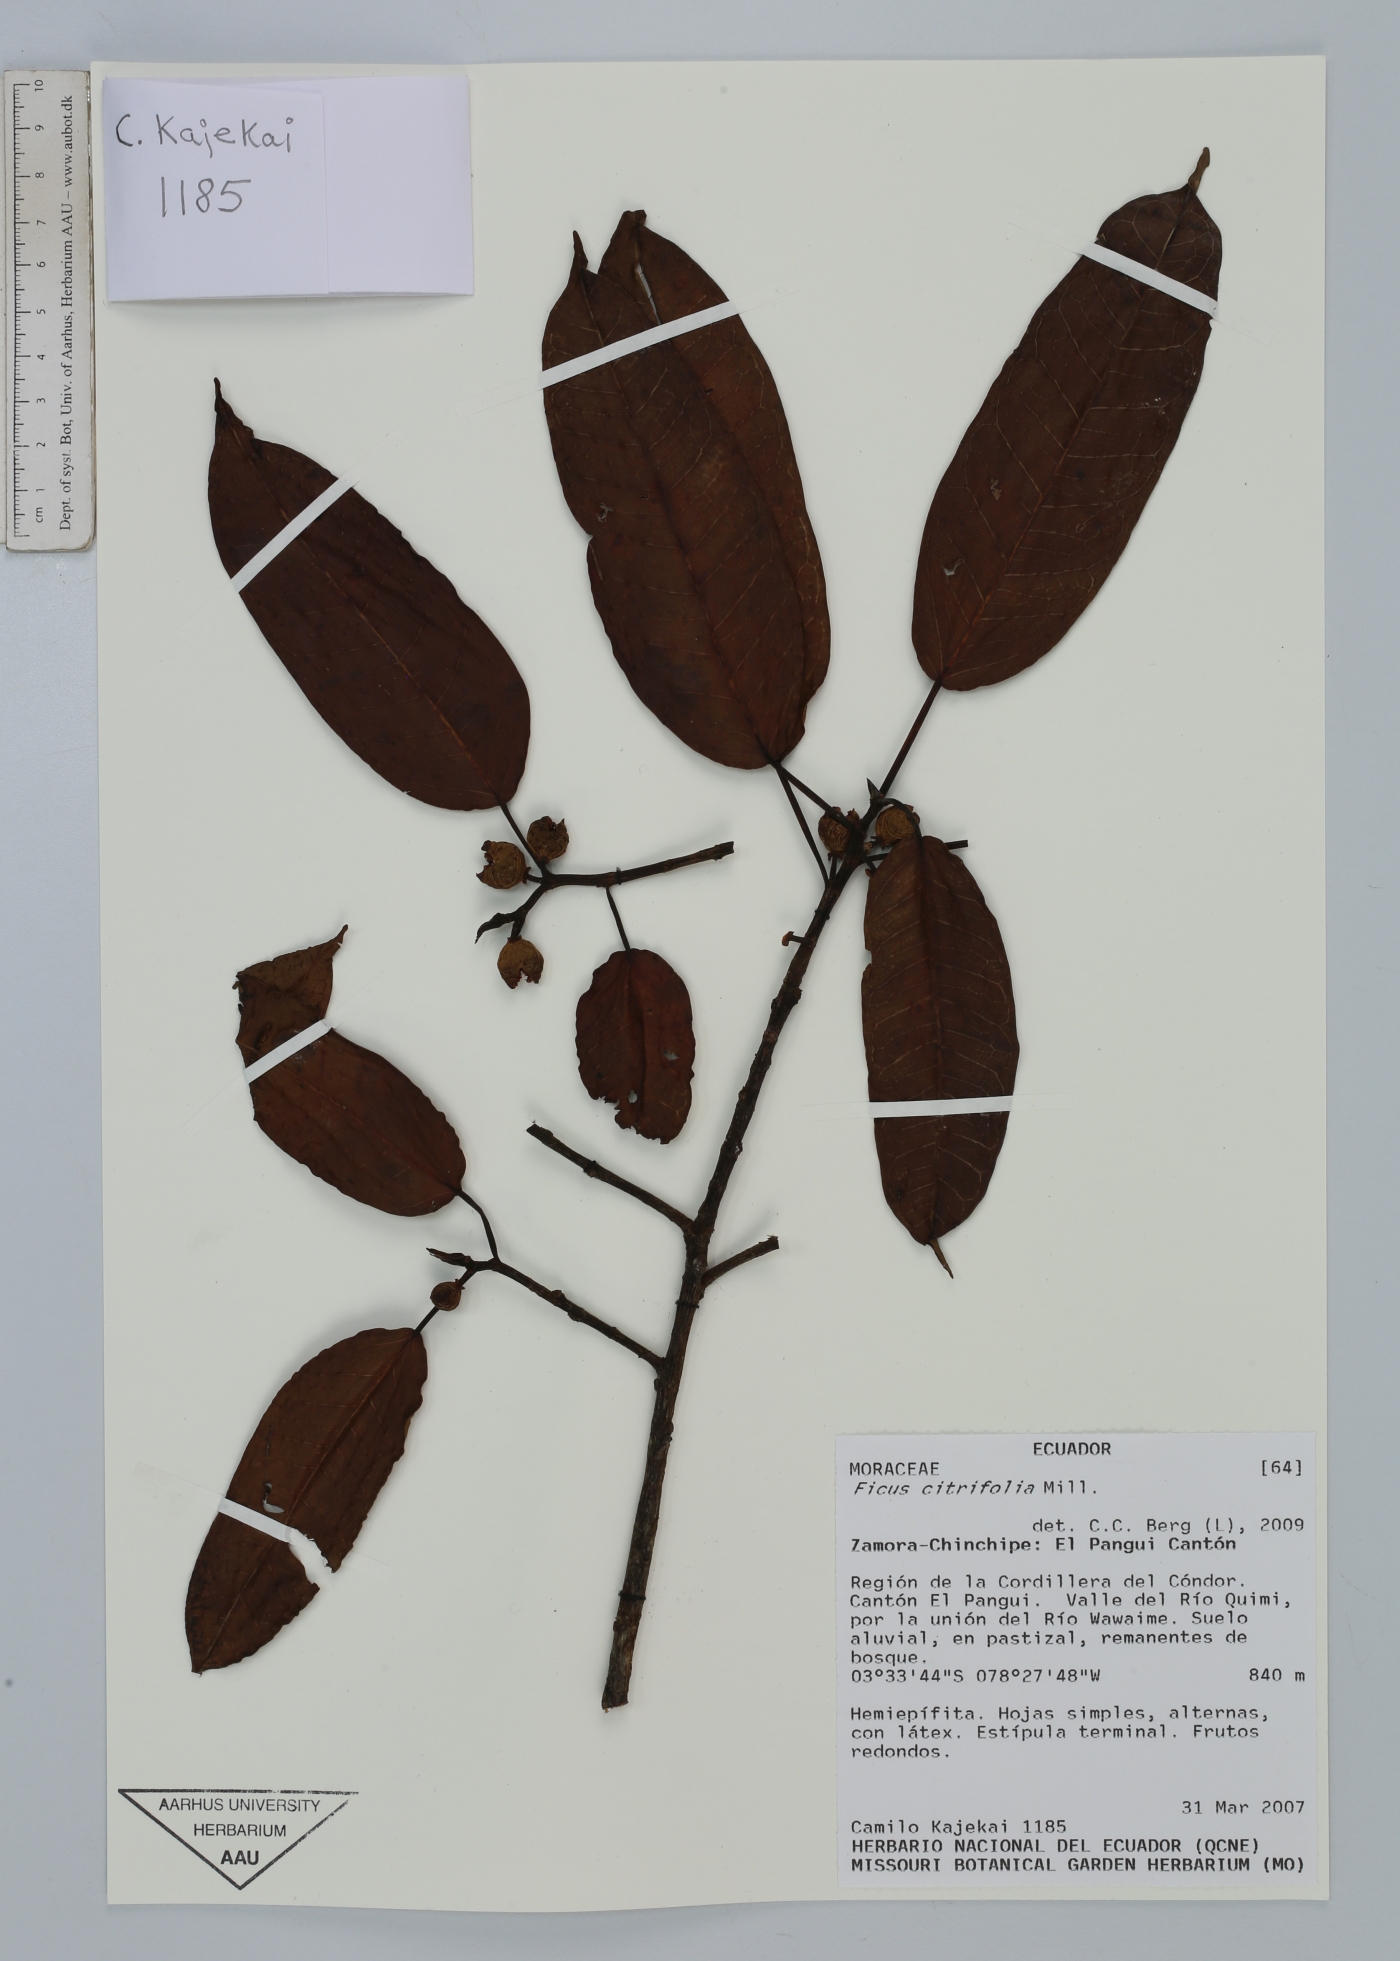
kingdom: Plantae
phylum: Tracheophyta
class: Magnoliopsida
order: Rosales
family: Moraceae
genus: Ficus
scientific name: Ficus citrifolia
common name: Strangler fig
